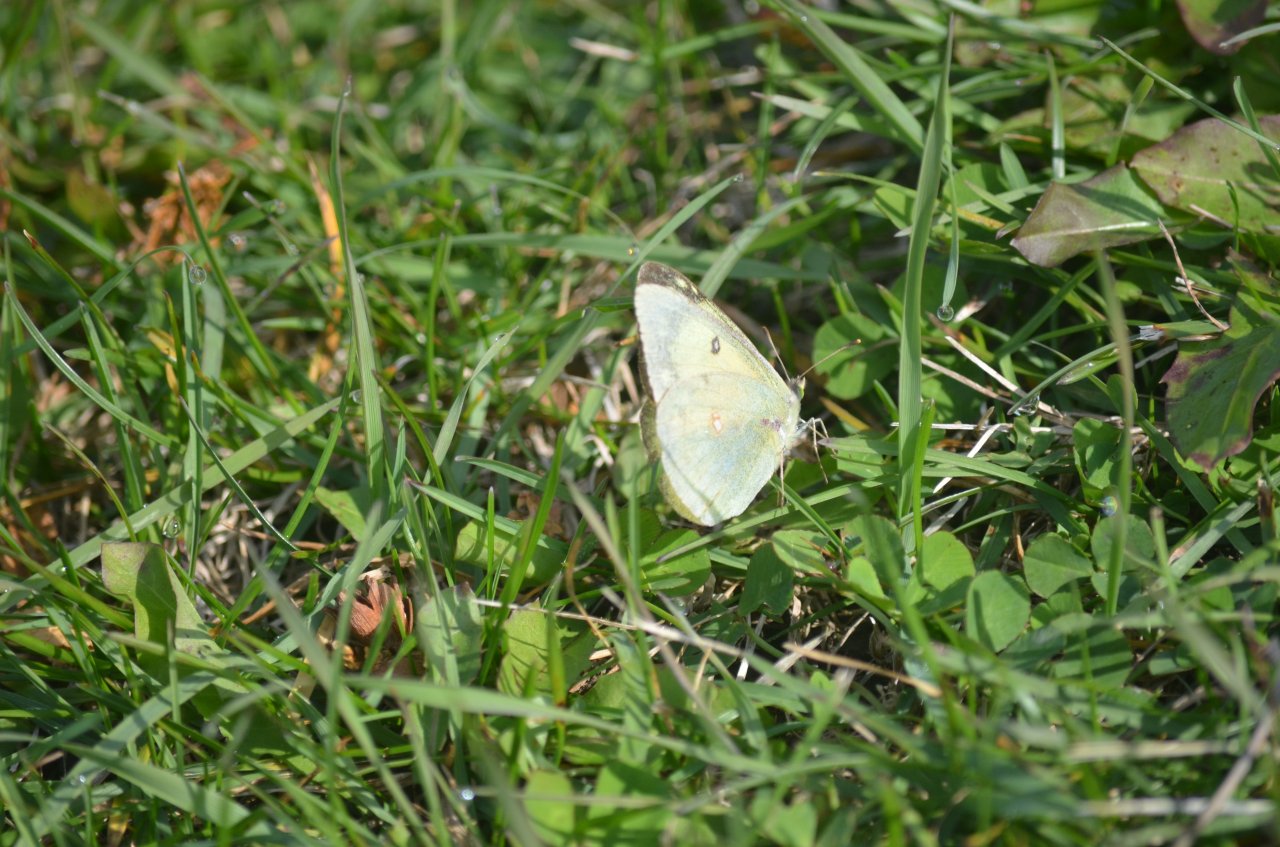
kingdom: Animalia
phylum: Arthropoda
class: Insecta
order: Lepidoptera
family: Pieridae
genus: Colias
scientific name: Colias philodice
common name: Clouded Sulphur
